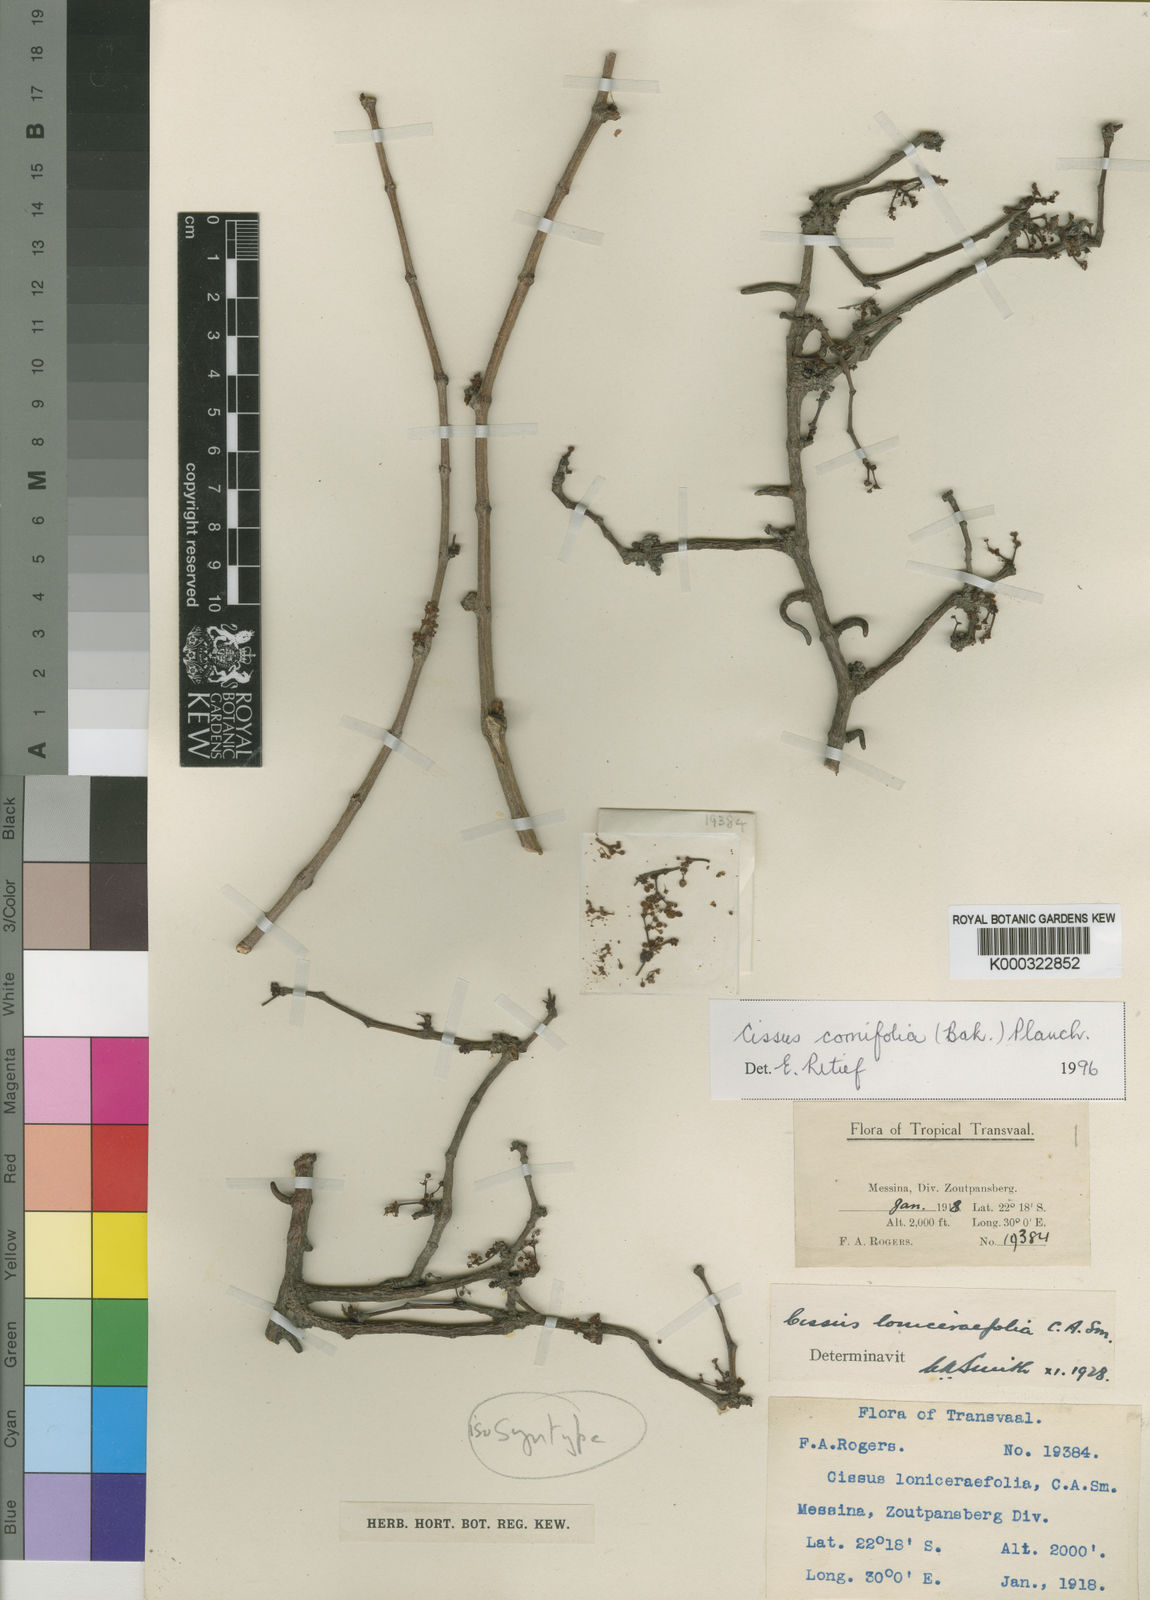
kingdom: Plantae
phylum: Tracheophyta
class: Magnoliopsida
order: Vitales
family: Vitaceae
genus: Cissus
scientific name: Cissus cornifolia
